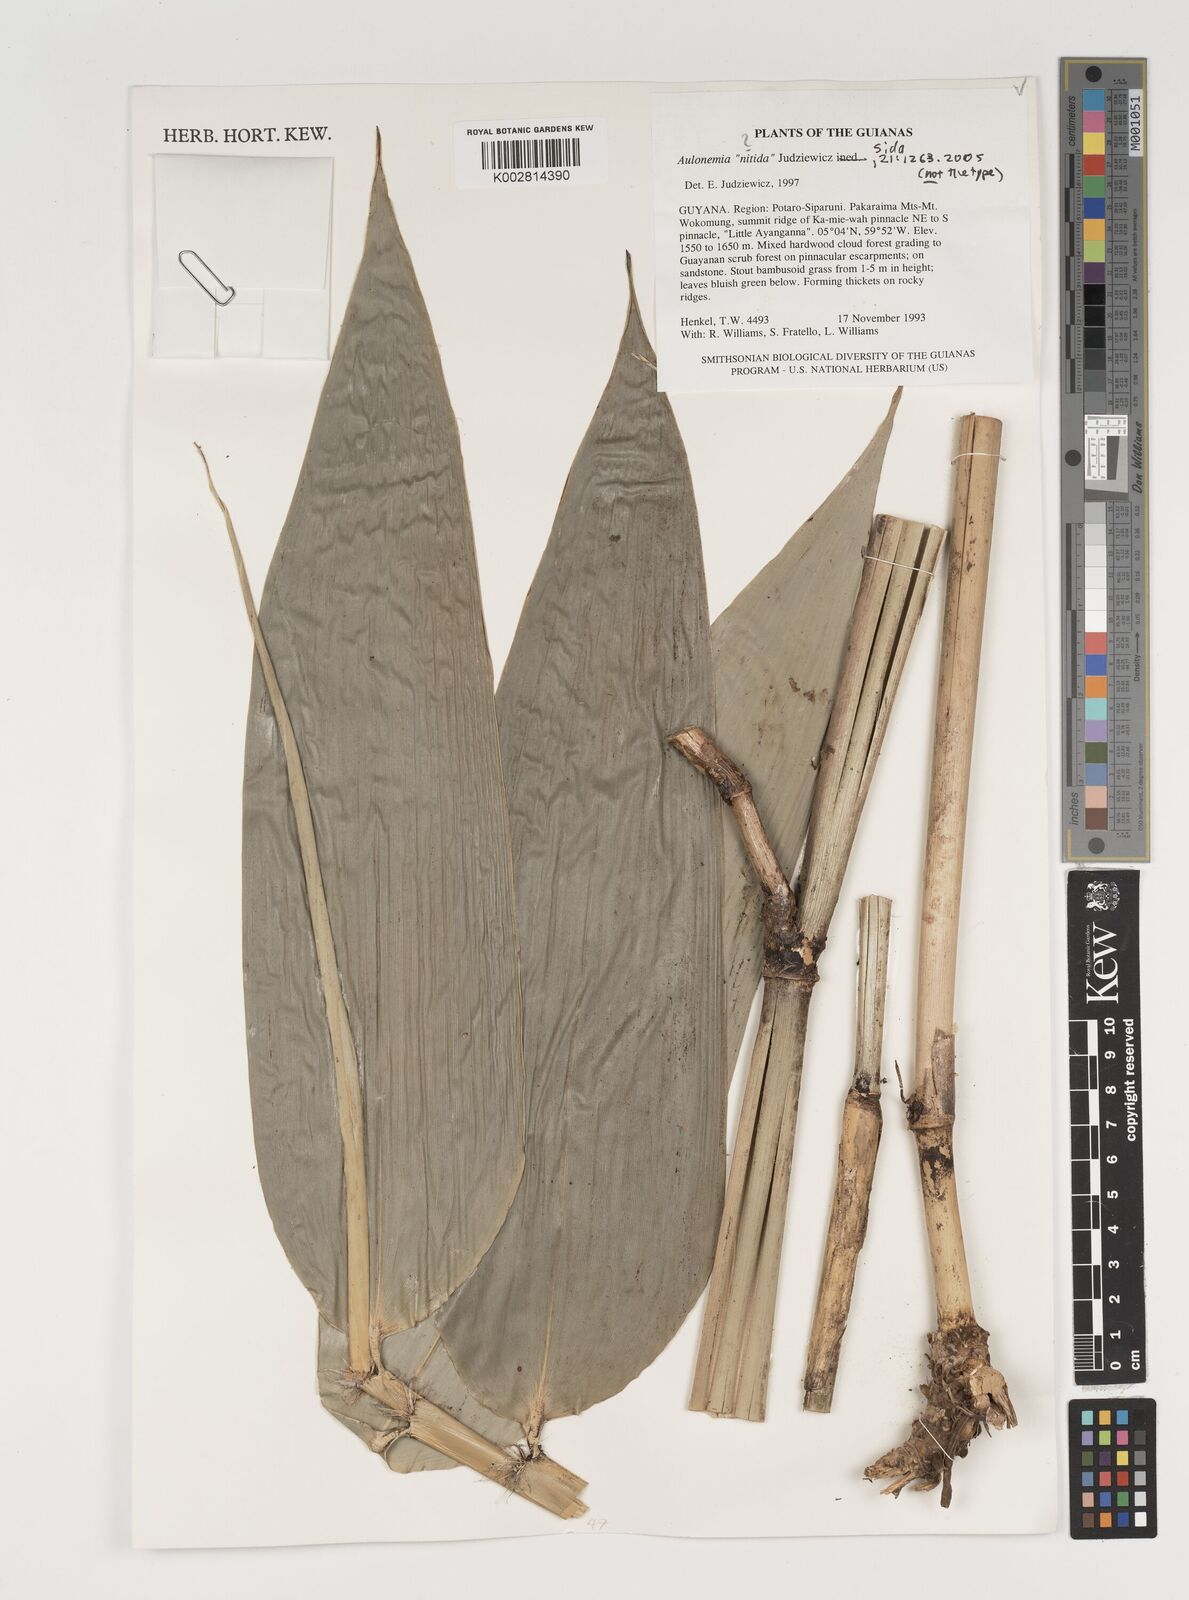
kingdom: Plantae
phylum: Tracheophyta
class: Liliopsida
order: Poales
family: Poaceae
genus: Aulonemia
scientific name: Aulonemia
